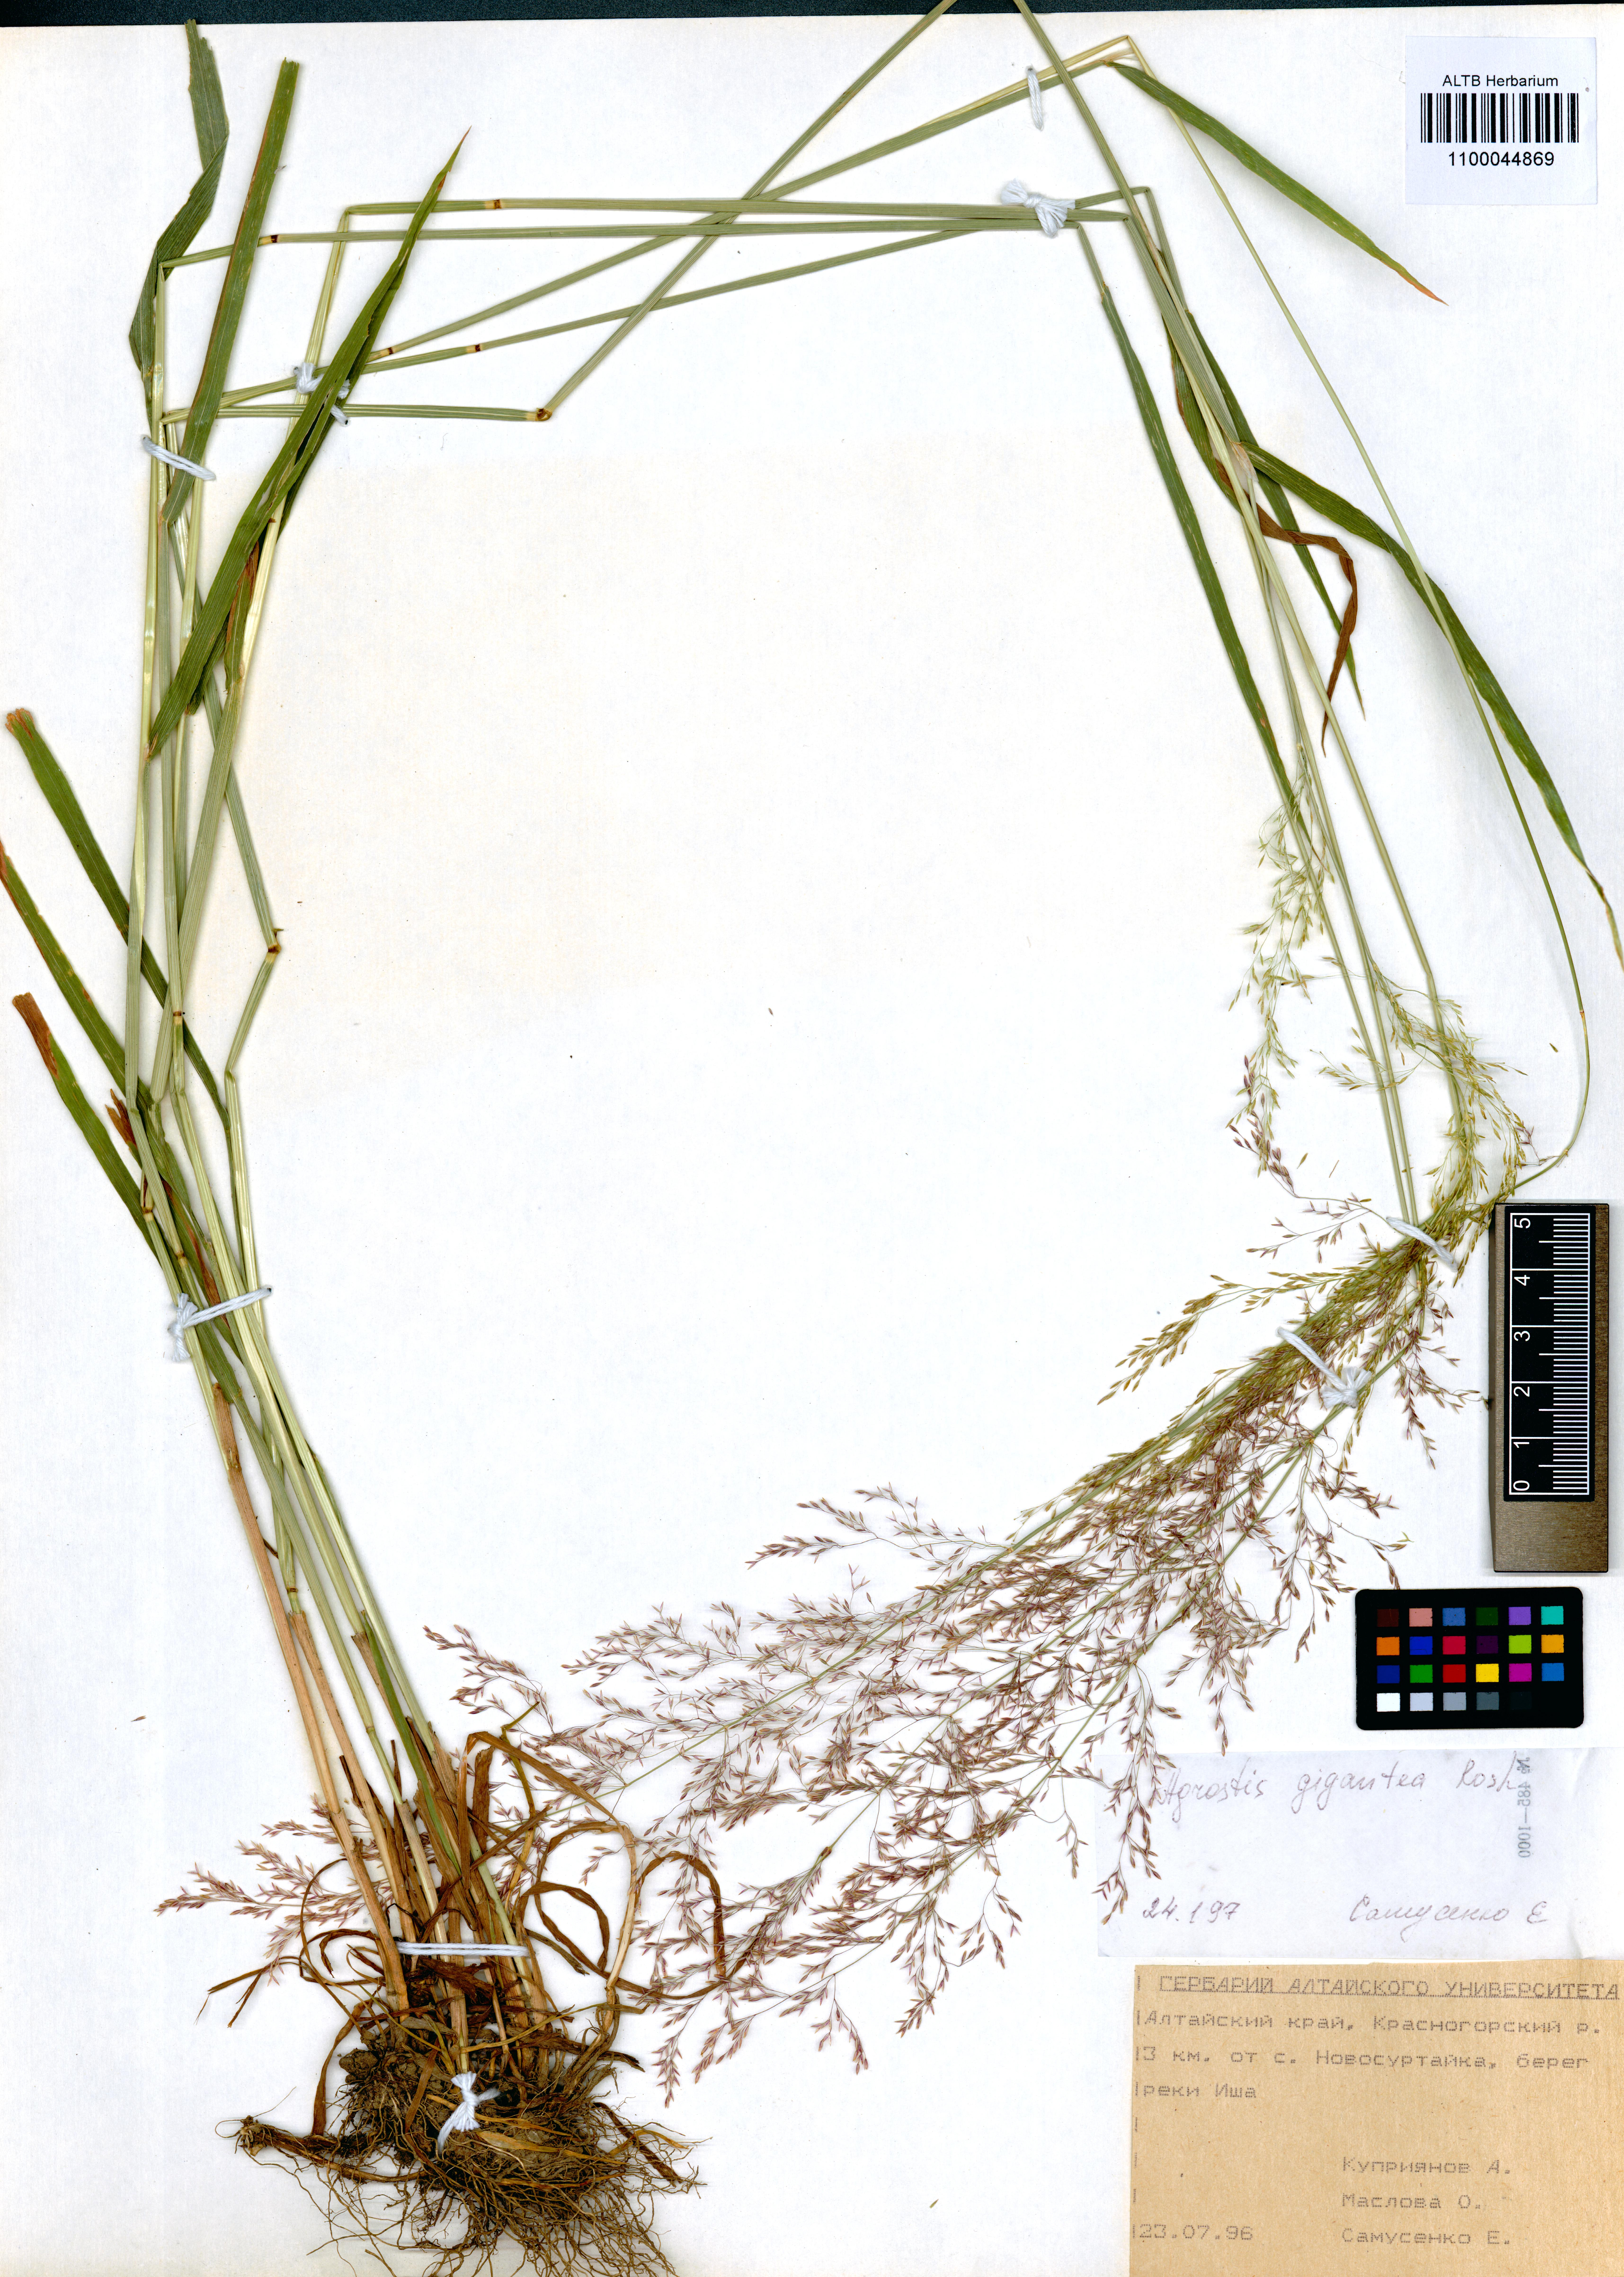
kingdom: Plantae
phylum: Tracheophyta
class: Liliopsida
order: Poales
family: Poaceae
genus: Agrostis
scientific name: Agrostis gigantea
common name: Black bent
